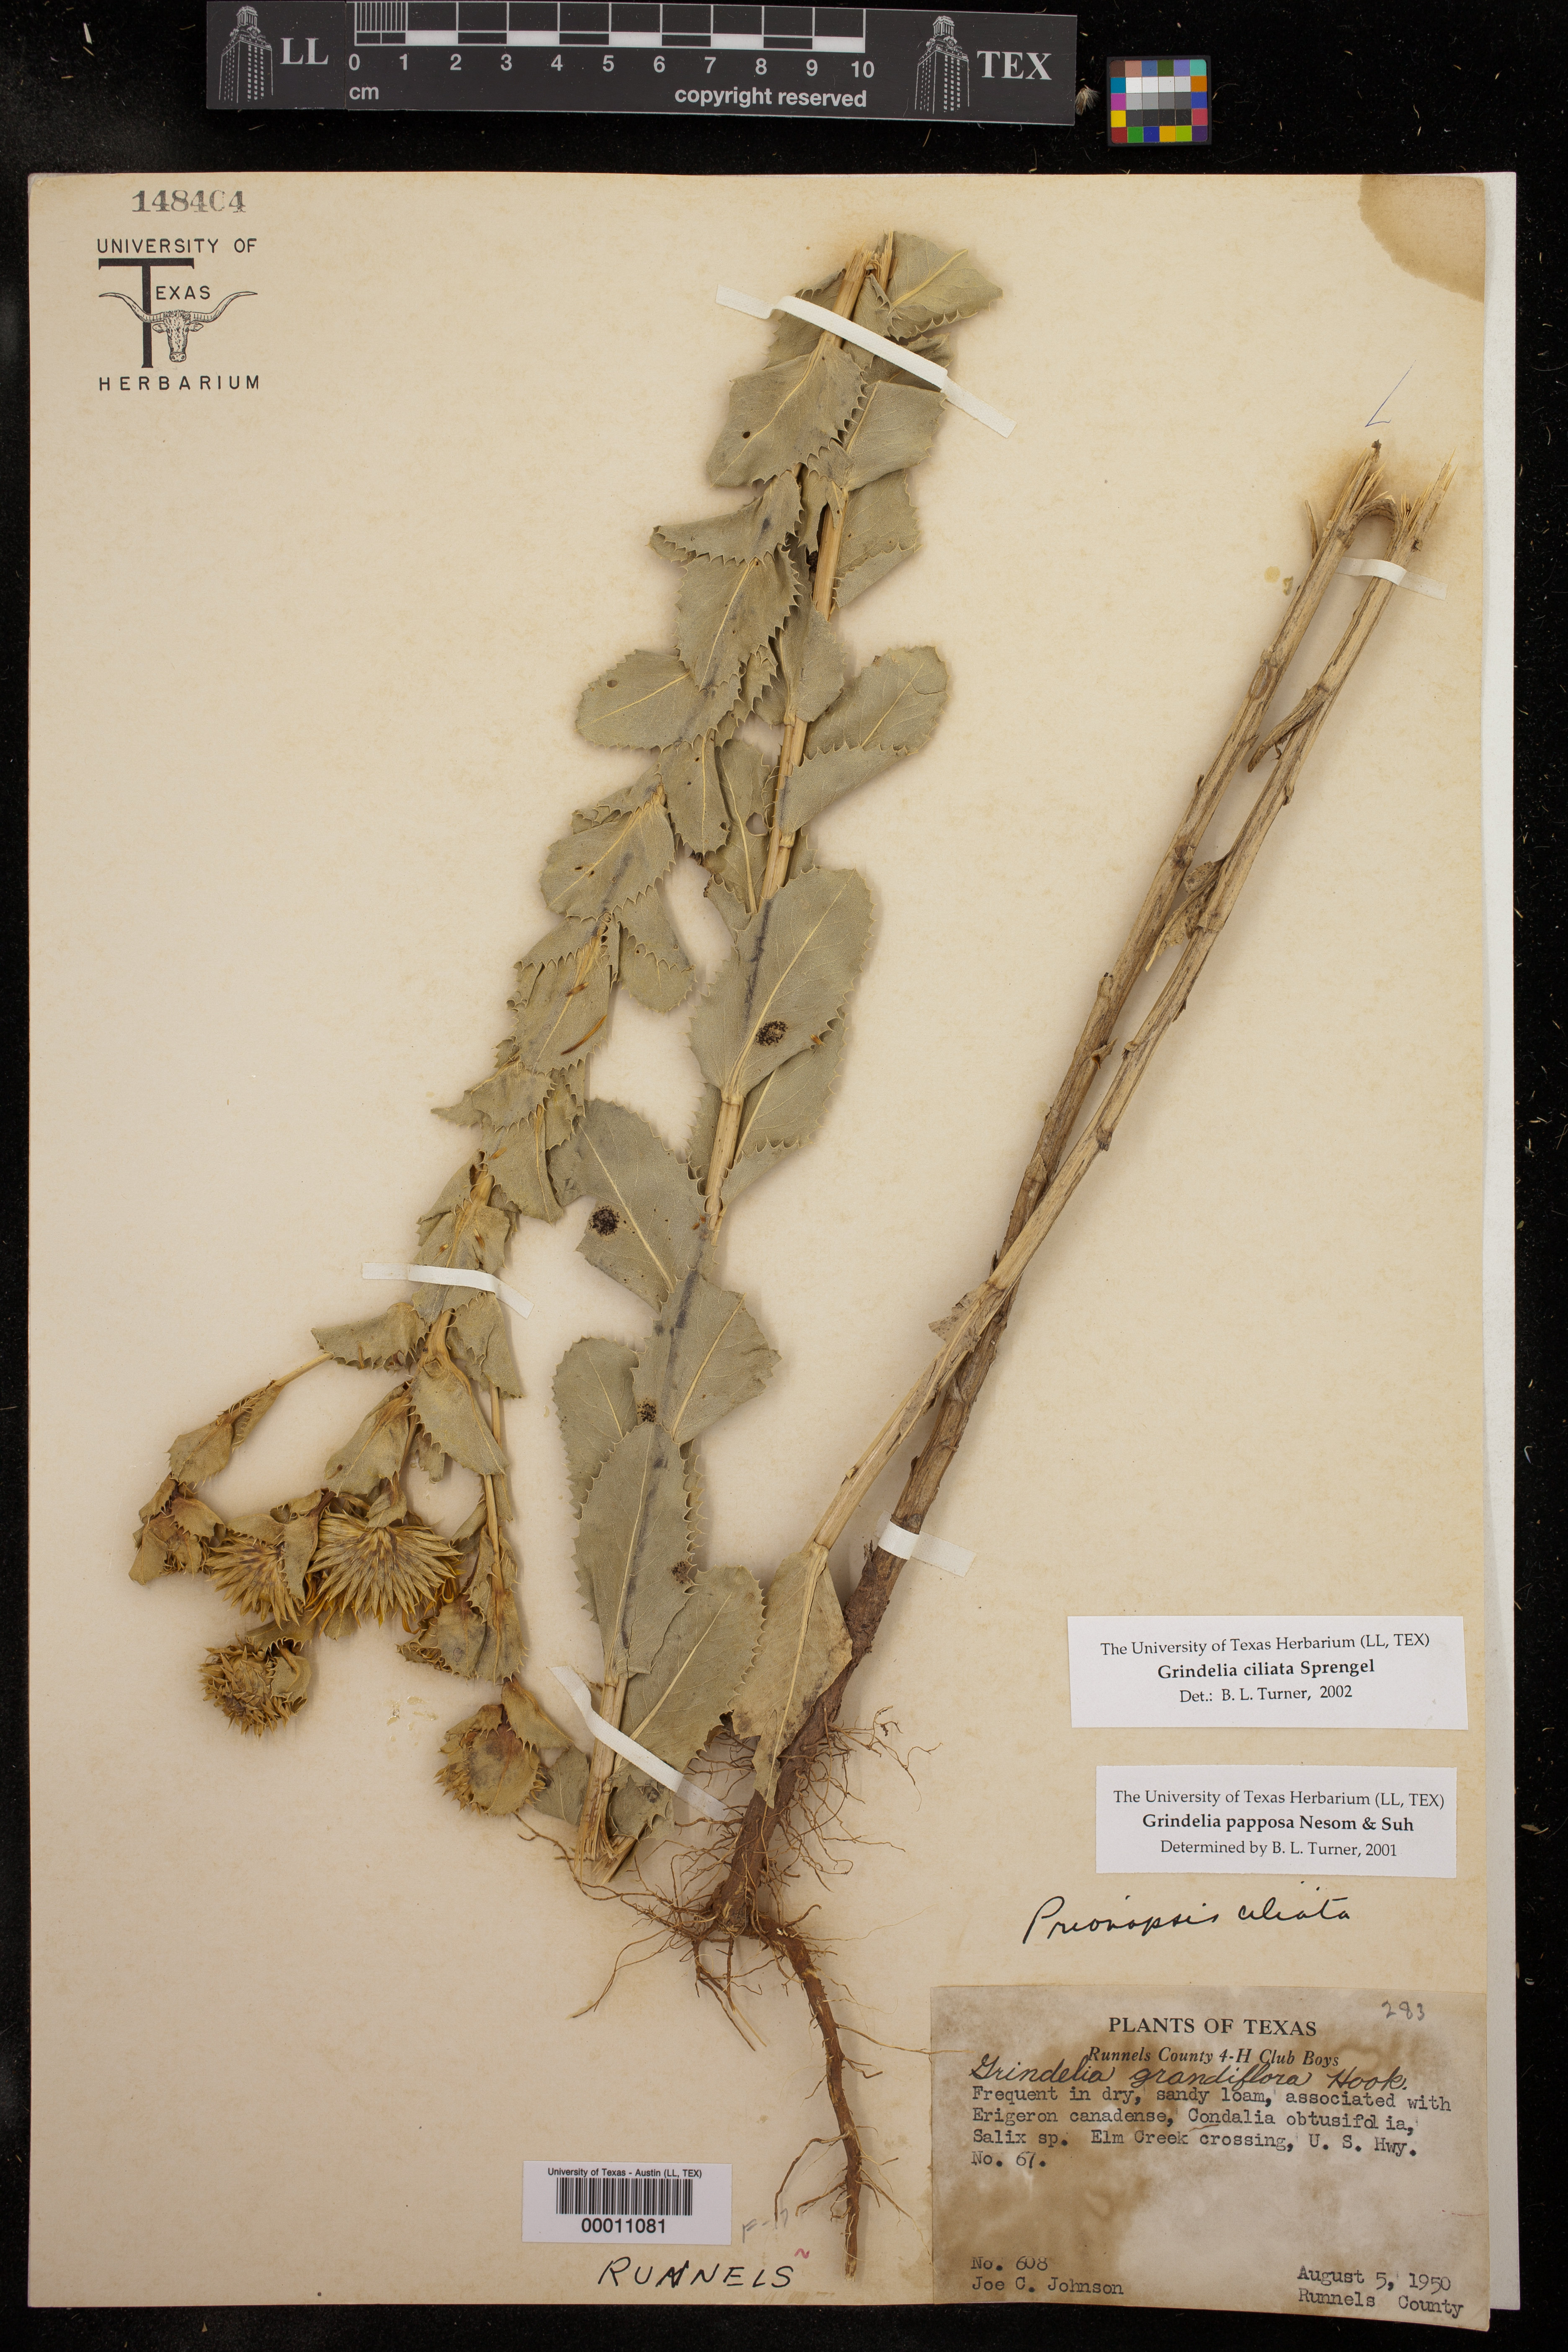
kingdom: Plantae
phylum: Tracheophyta
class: Magnoliopsida
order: Asterales
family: Asteraceae
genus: Grindelia
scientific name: Grindelia ciliata
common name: Goldenweed
